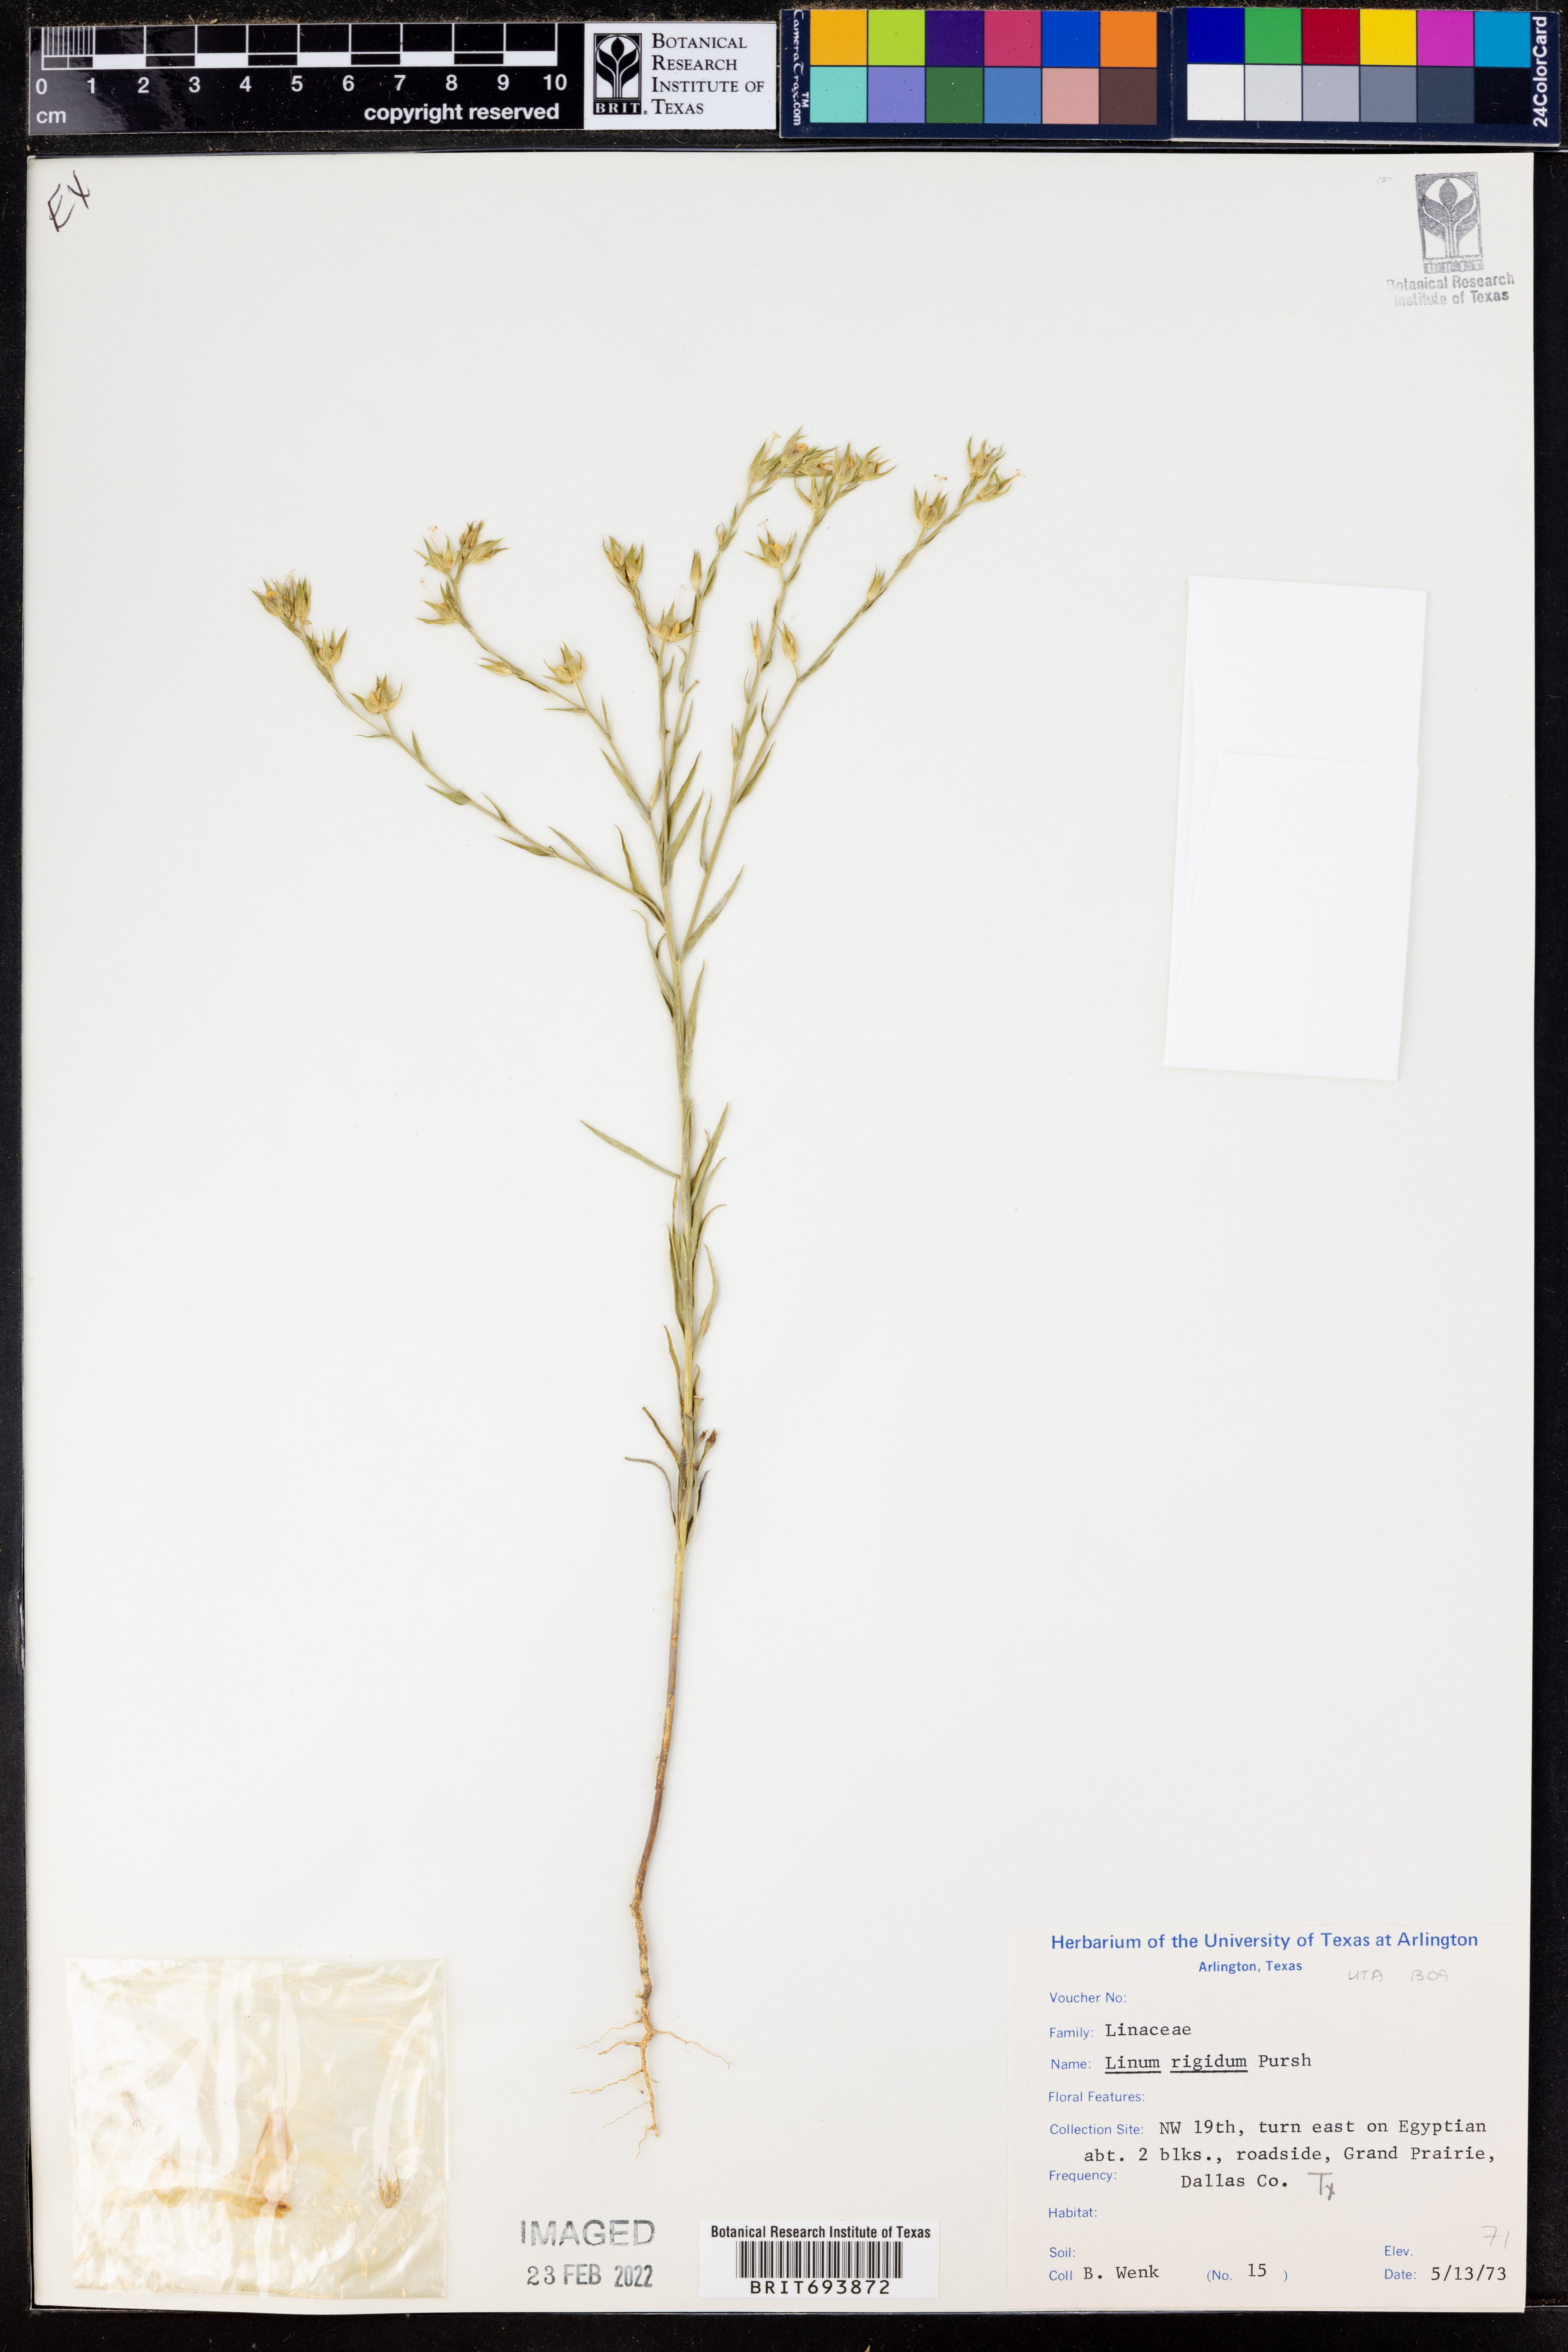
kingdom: Plantae
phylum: Tracheophyta
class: Magnoliopsida
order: Malpighiales
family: Linaceae
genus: Linum
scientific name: Linum rigidum
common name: Stiff-stem flax
